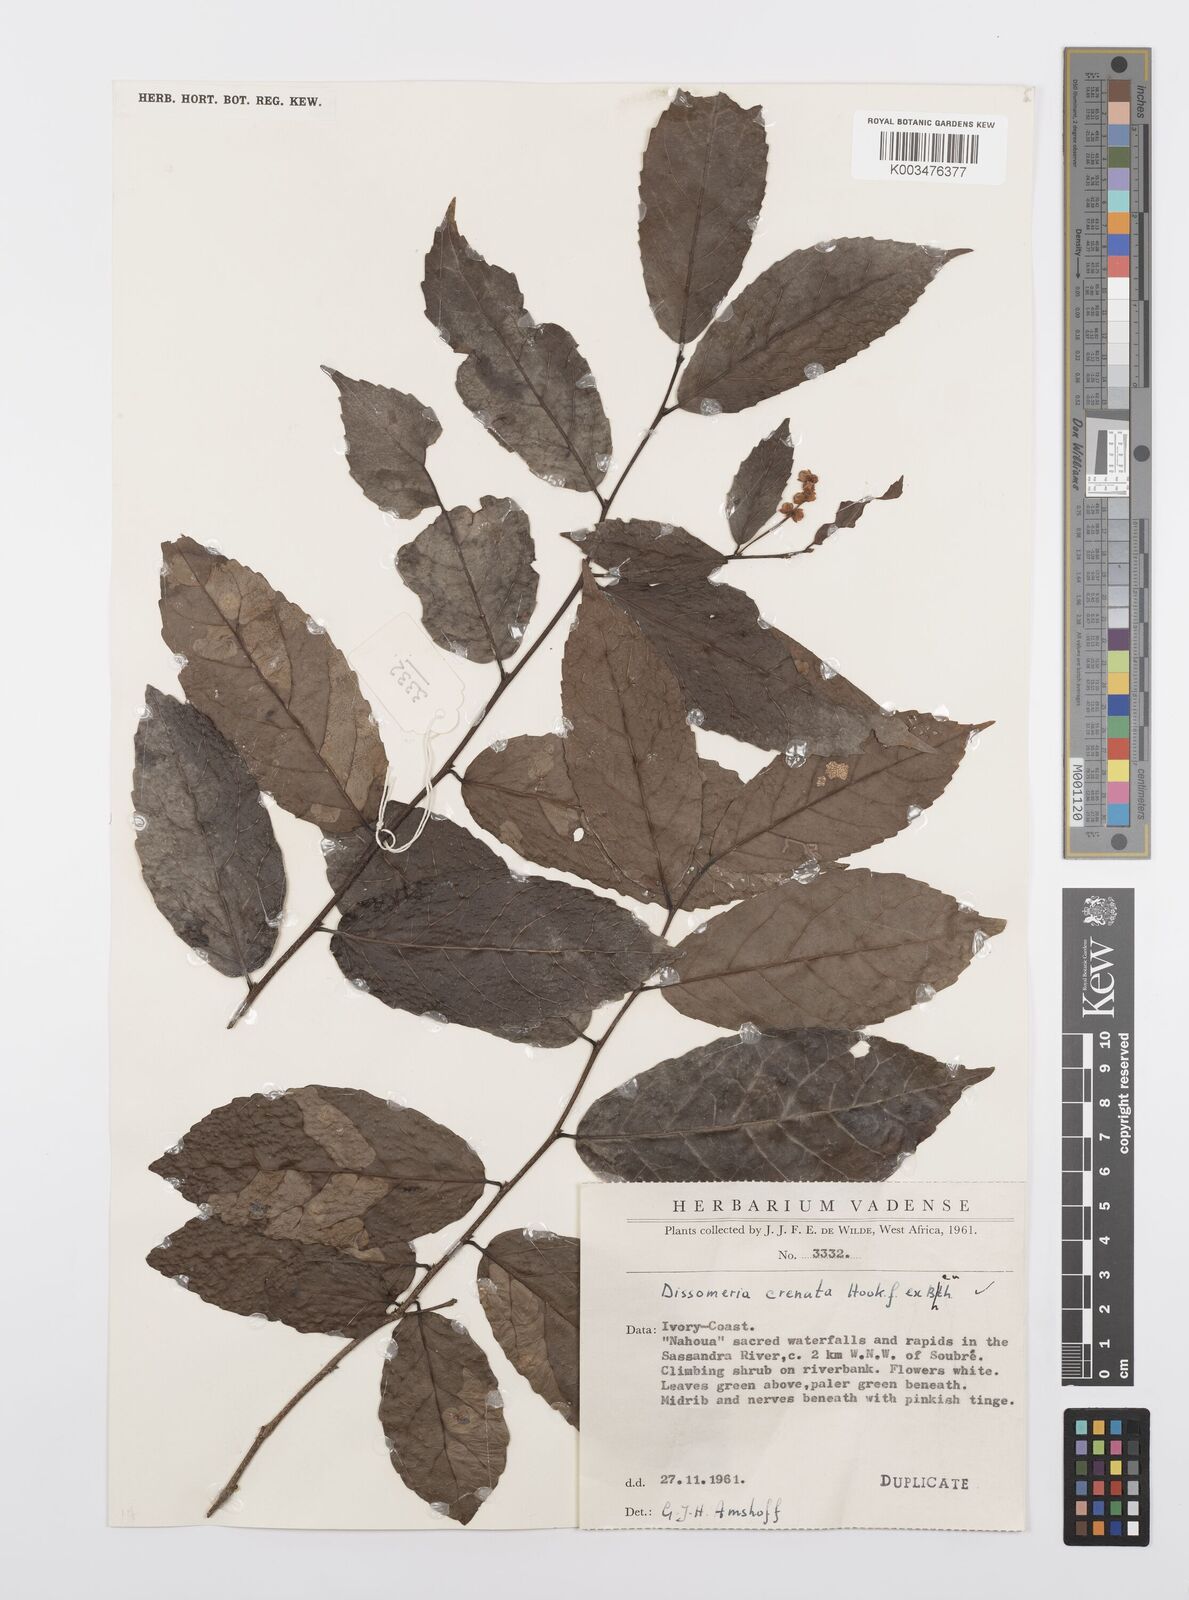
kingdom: Plantae
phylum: Tracheophyta
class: Magnoliopsida
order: Malpighiales
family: Salicaceae
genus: Dissomeria
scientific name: Dissomeria crenata
